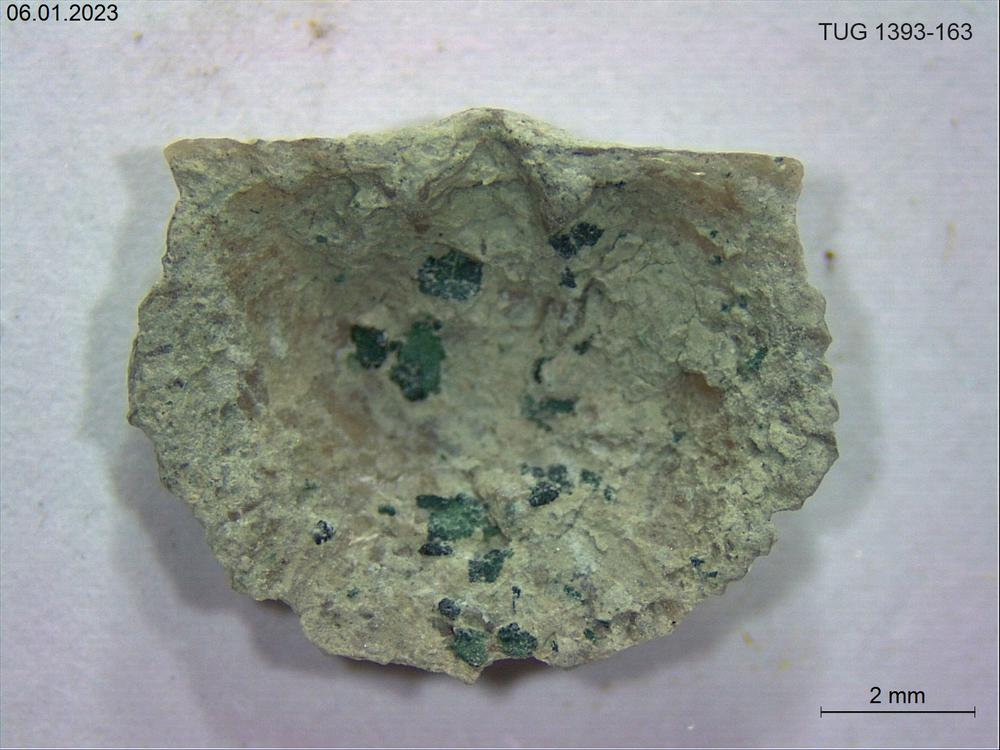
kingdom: Animalia
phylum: Brachiopoda
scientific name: Brachiopoda
